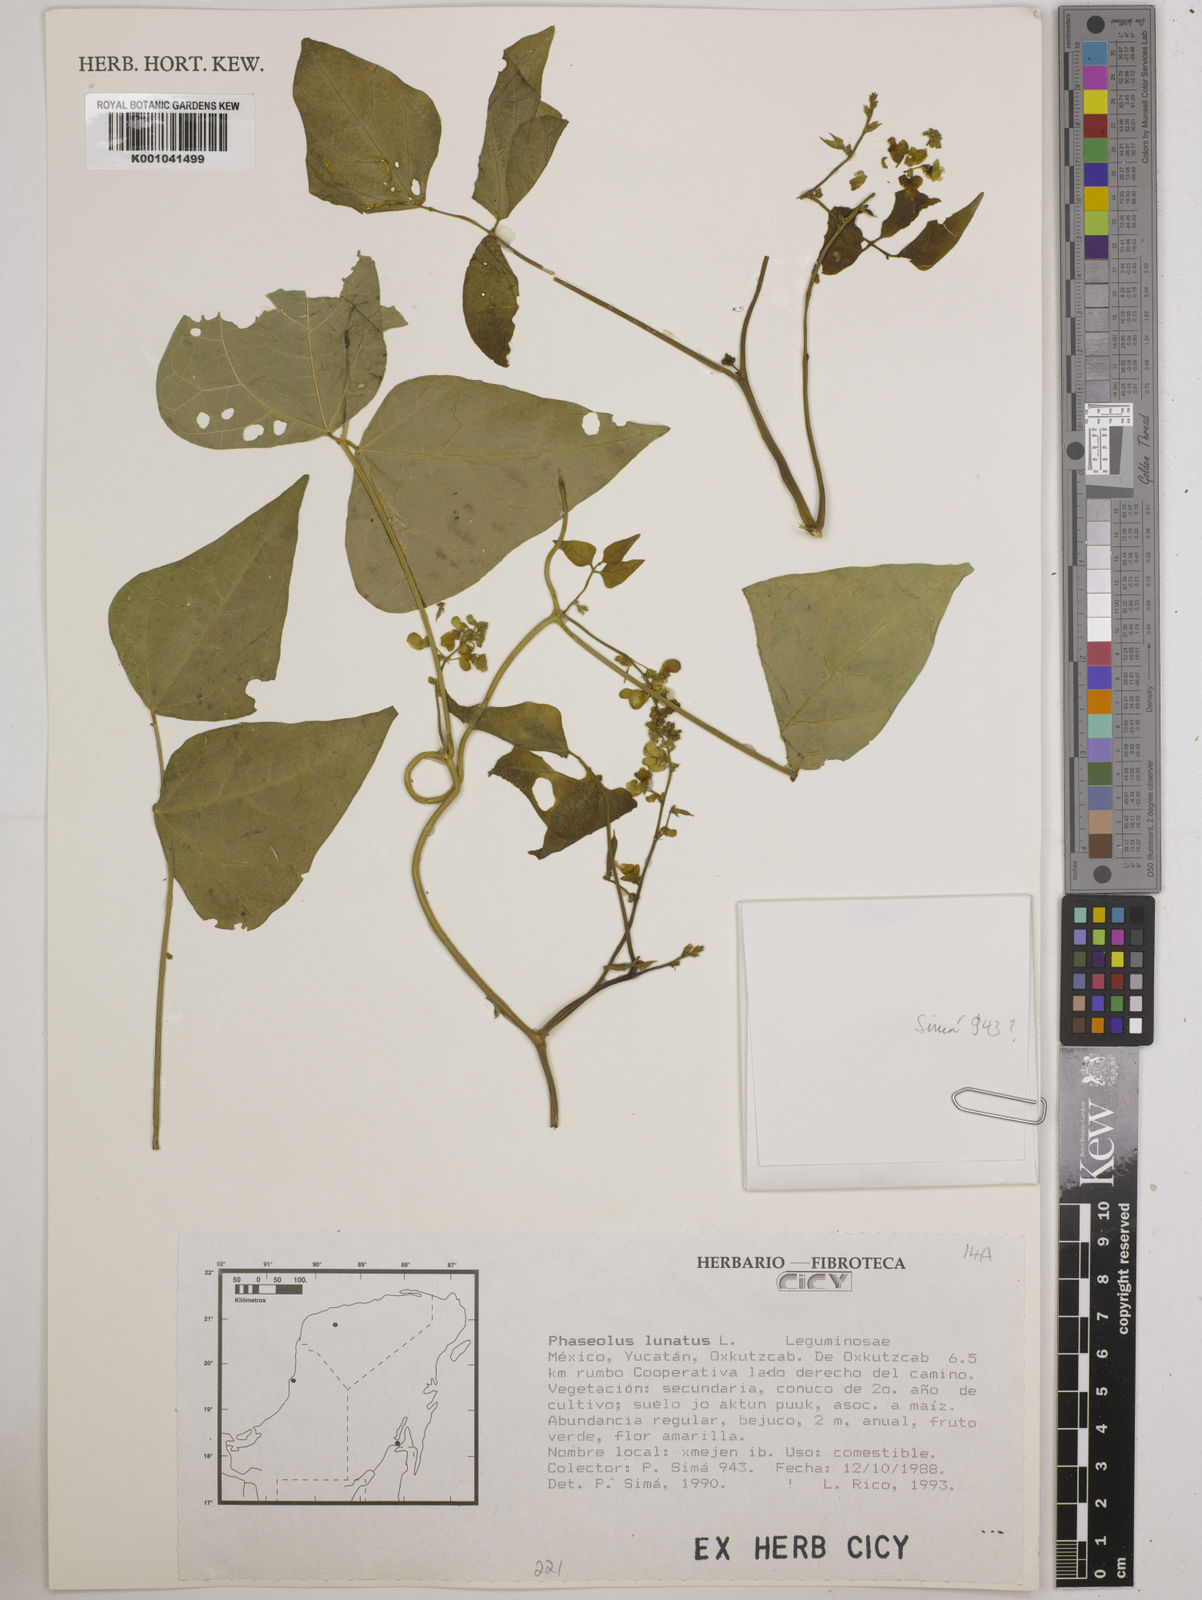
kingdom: Plantae
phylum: Tracheophyta
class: Magnoliopsida
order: Fabales
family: Fabaceae
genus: Phaseolus
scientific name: Phaseolus lunatus
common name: Sieva bean
